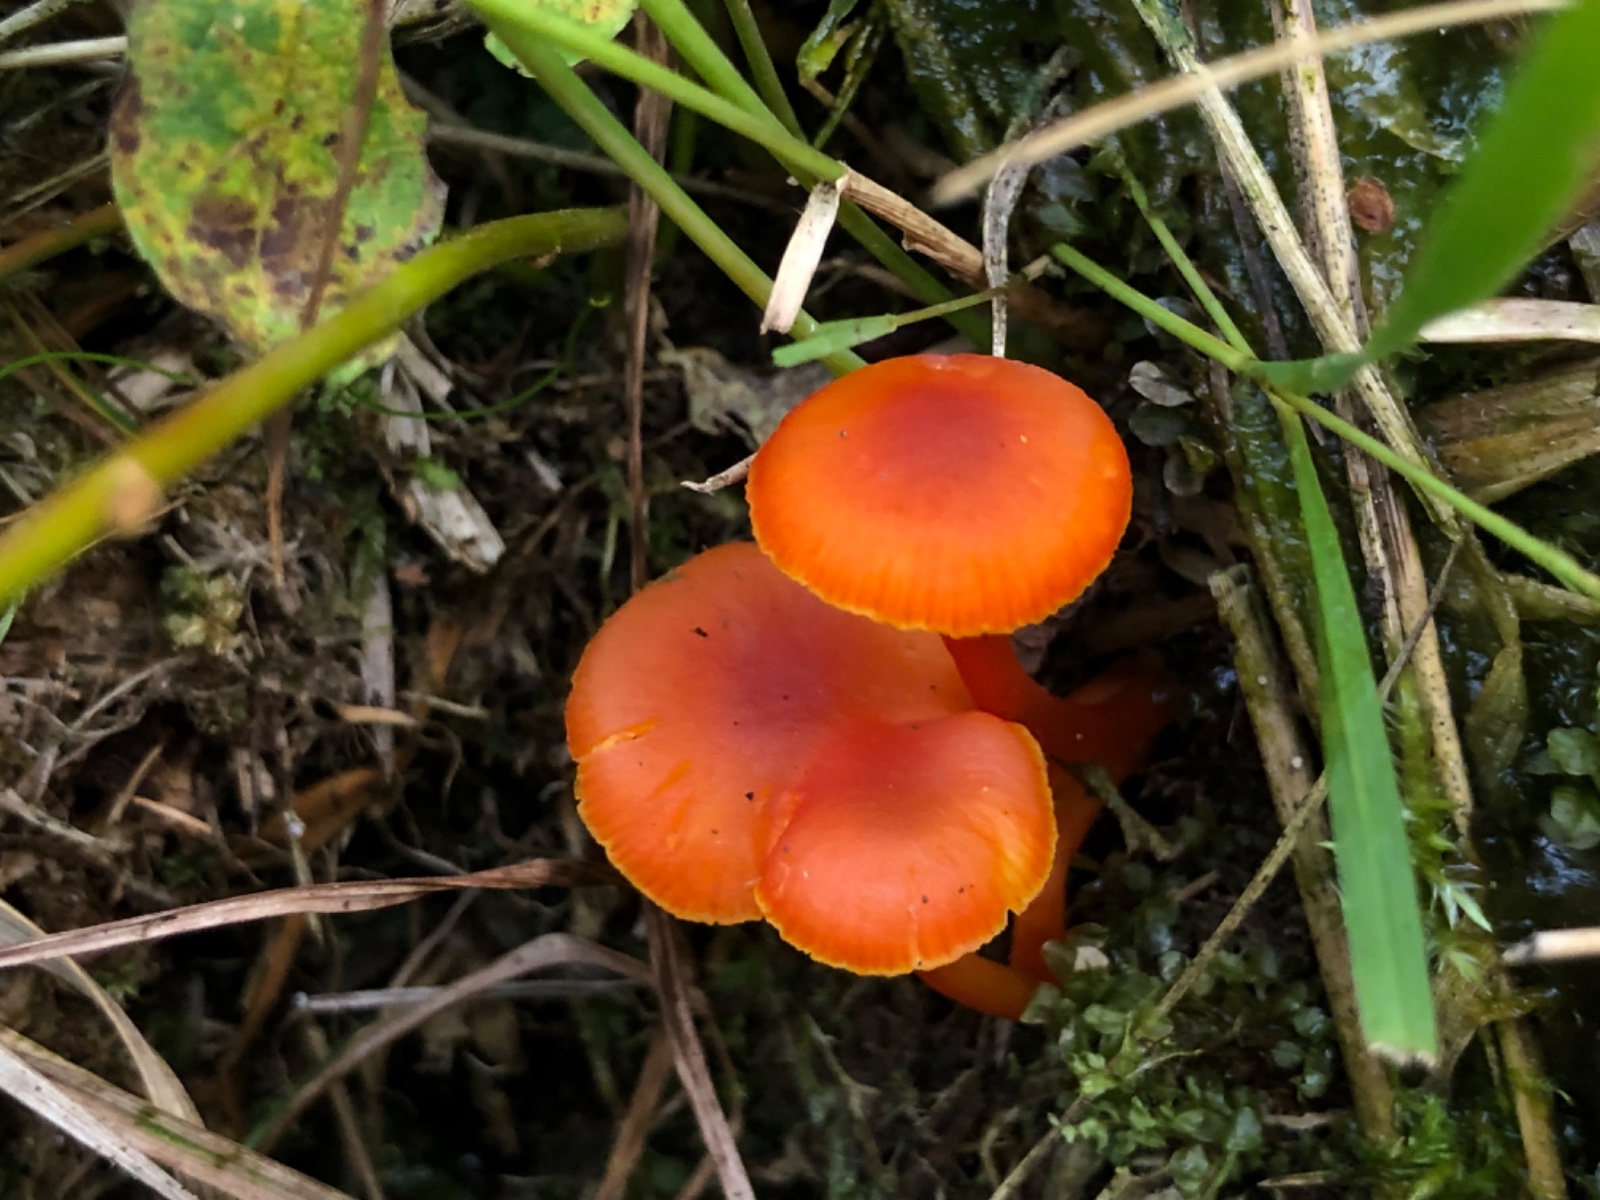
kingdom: Fungi
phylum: Basidiomycota
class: Agaricomycetes
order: Agaricales
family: Hygrophoraceae
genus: Hygrocybe
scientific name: Hygrocybe miniata
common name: mønje-vokshat
